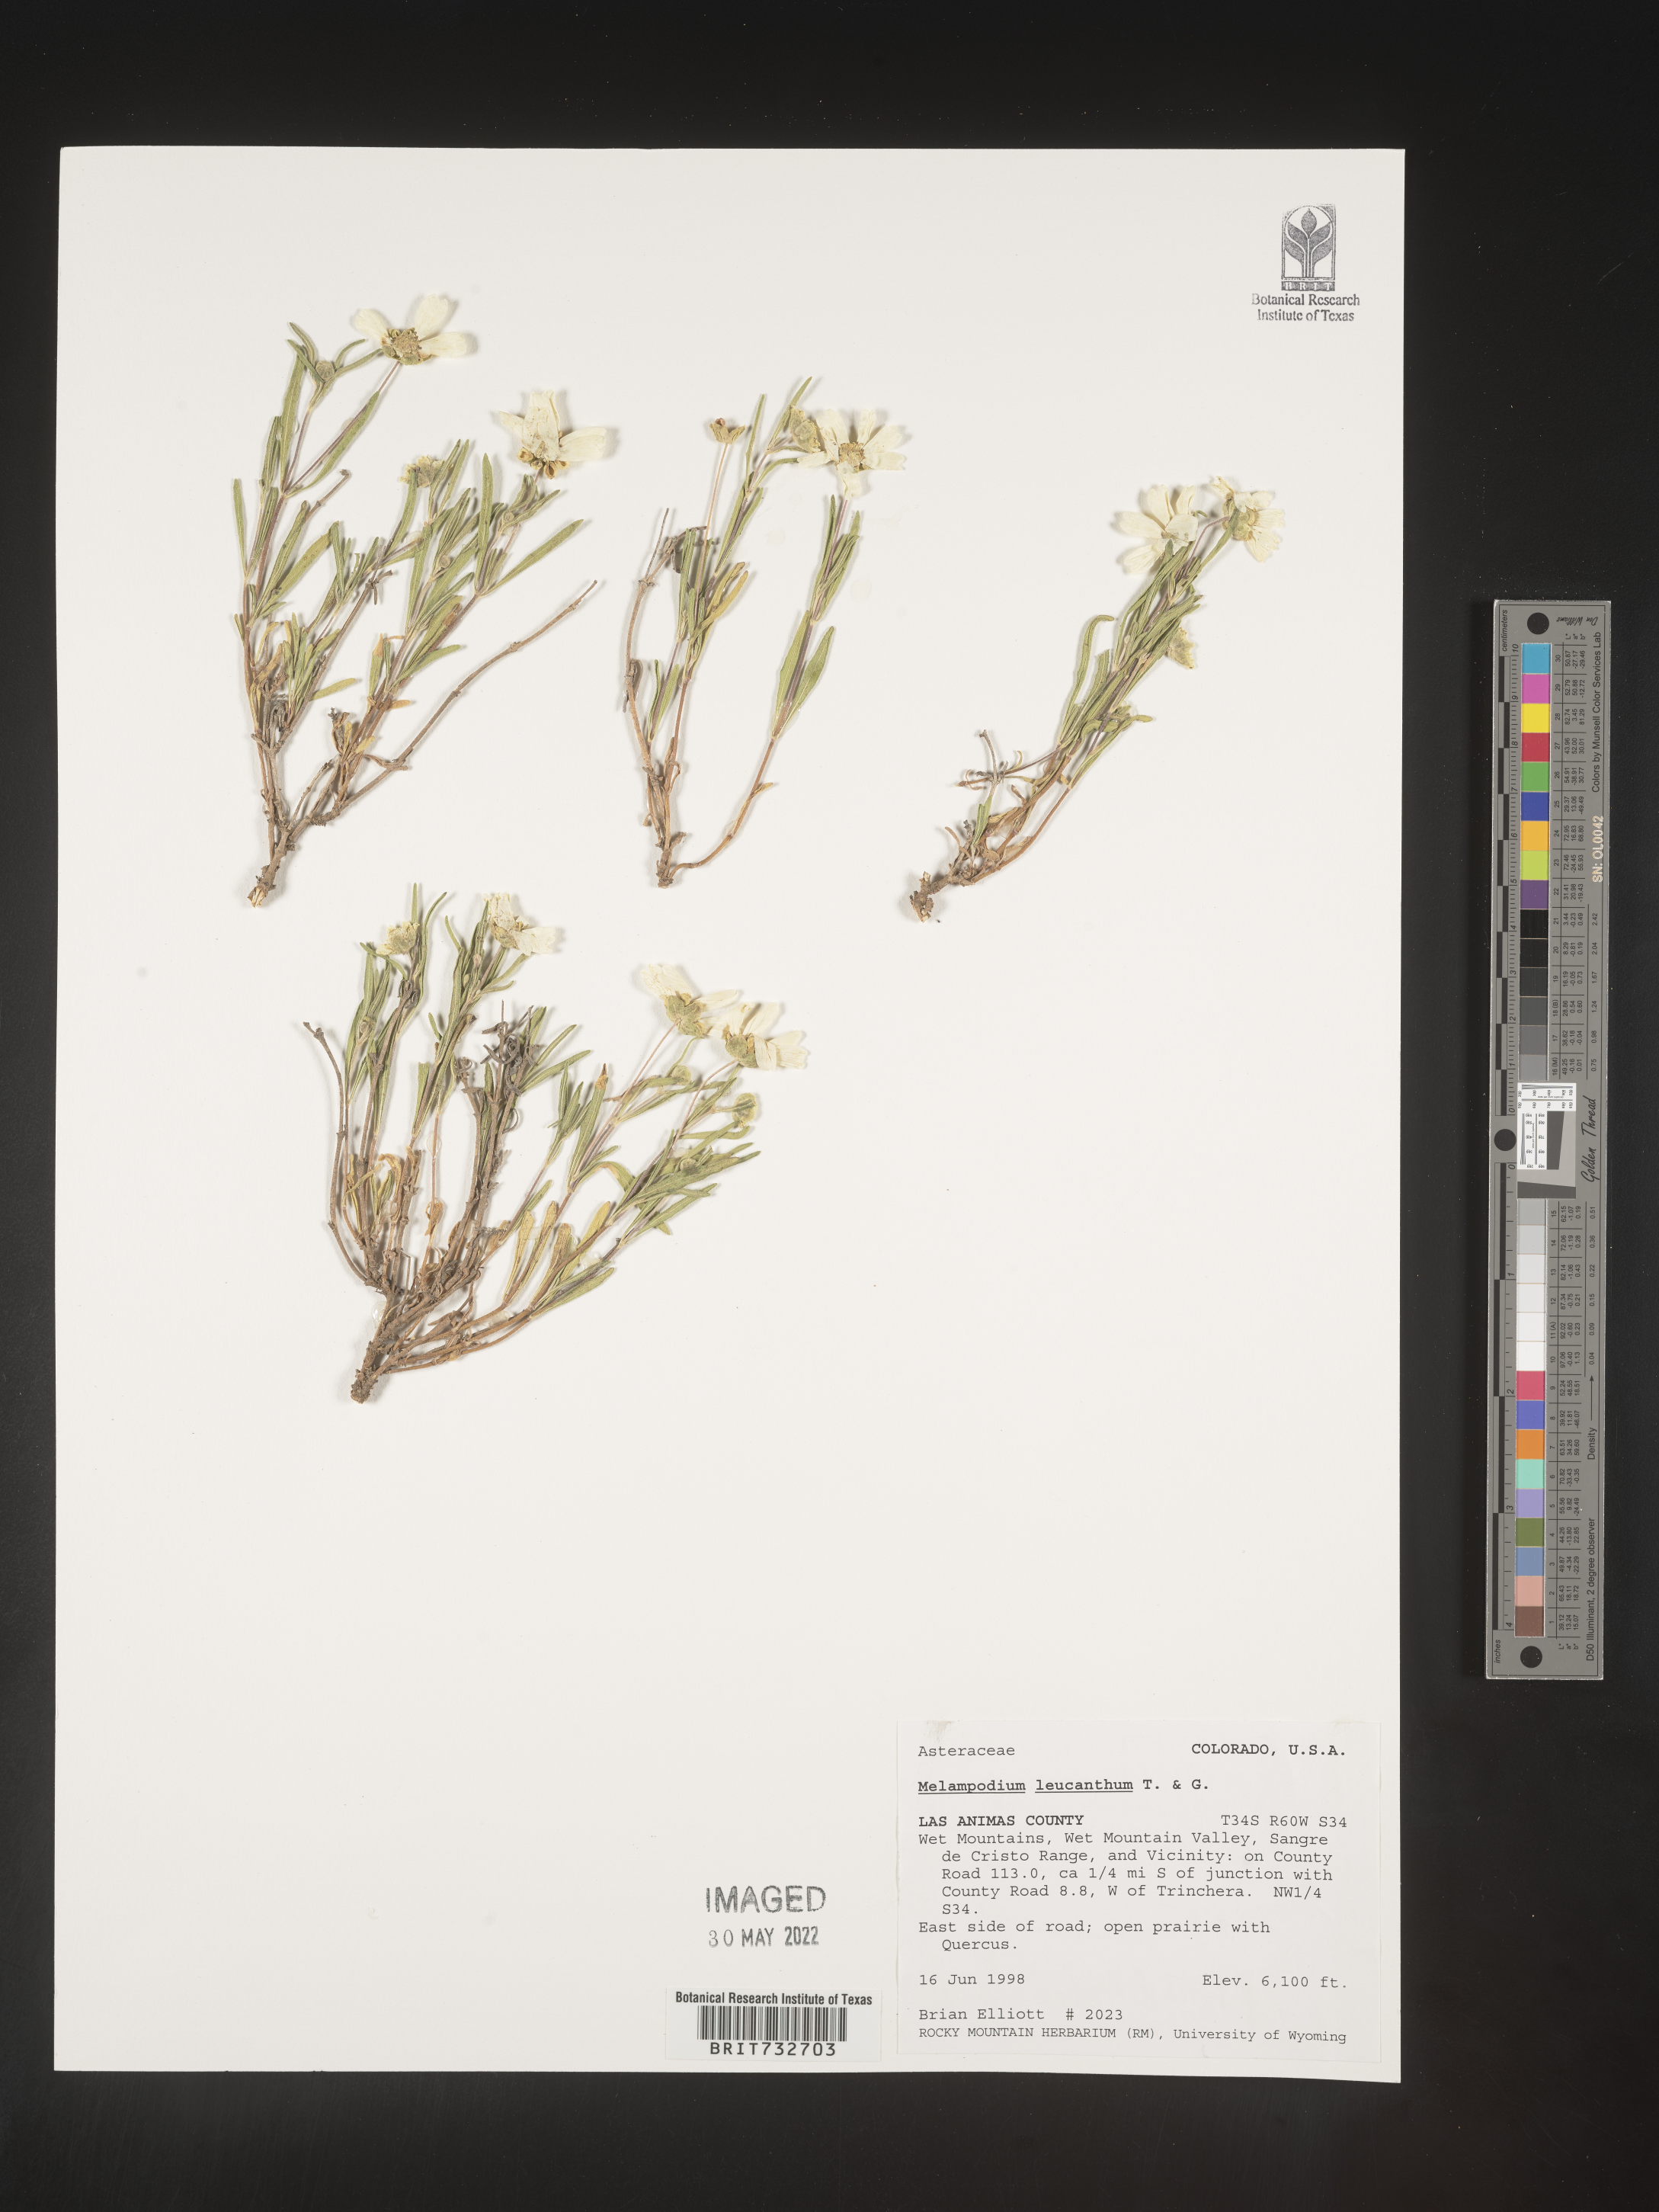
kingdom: Plantae
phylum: Tracheophyta
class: Magnoliopsida
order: Asterales
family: Asteraceae
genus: Melampodium
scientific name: Melampodium leucanthum
